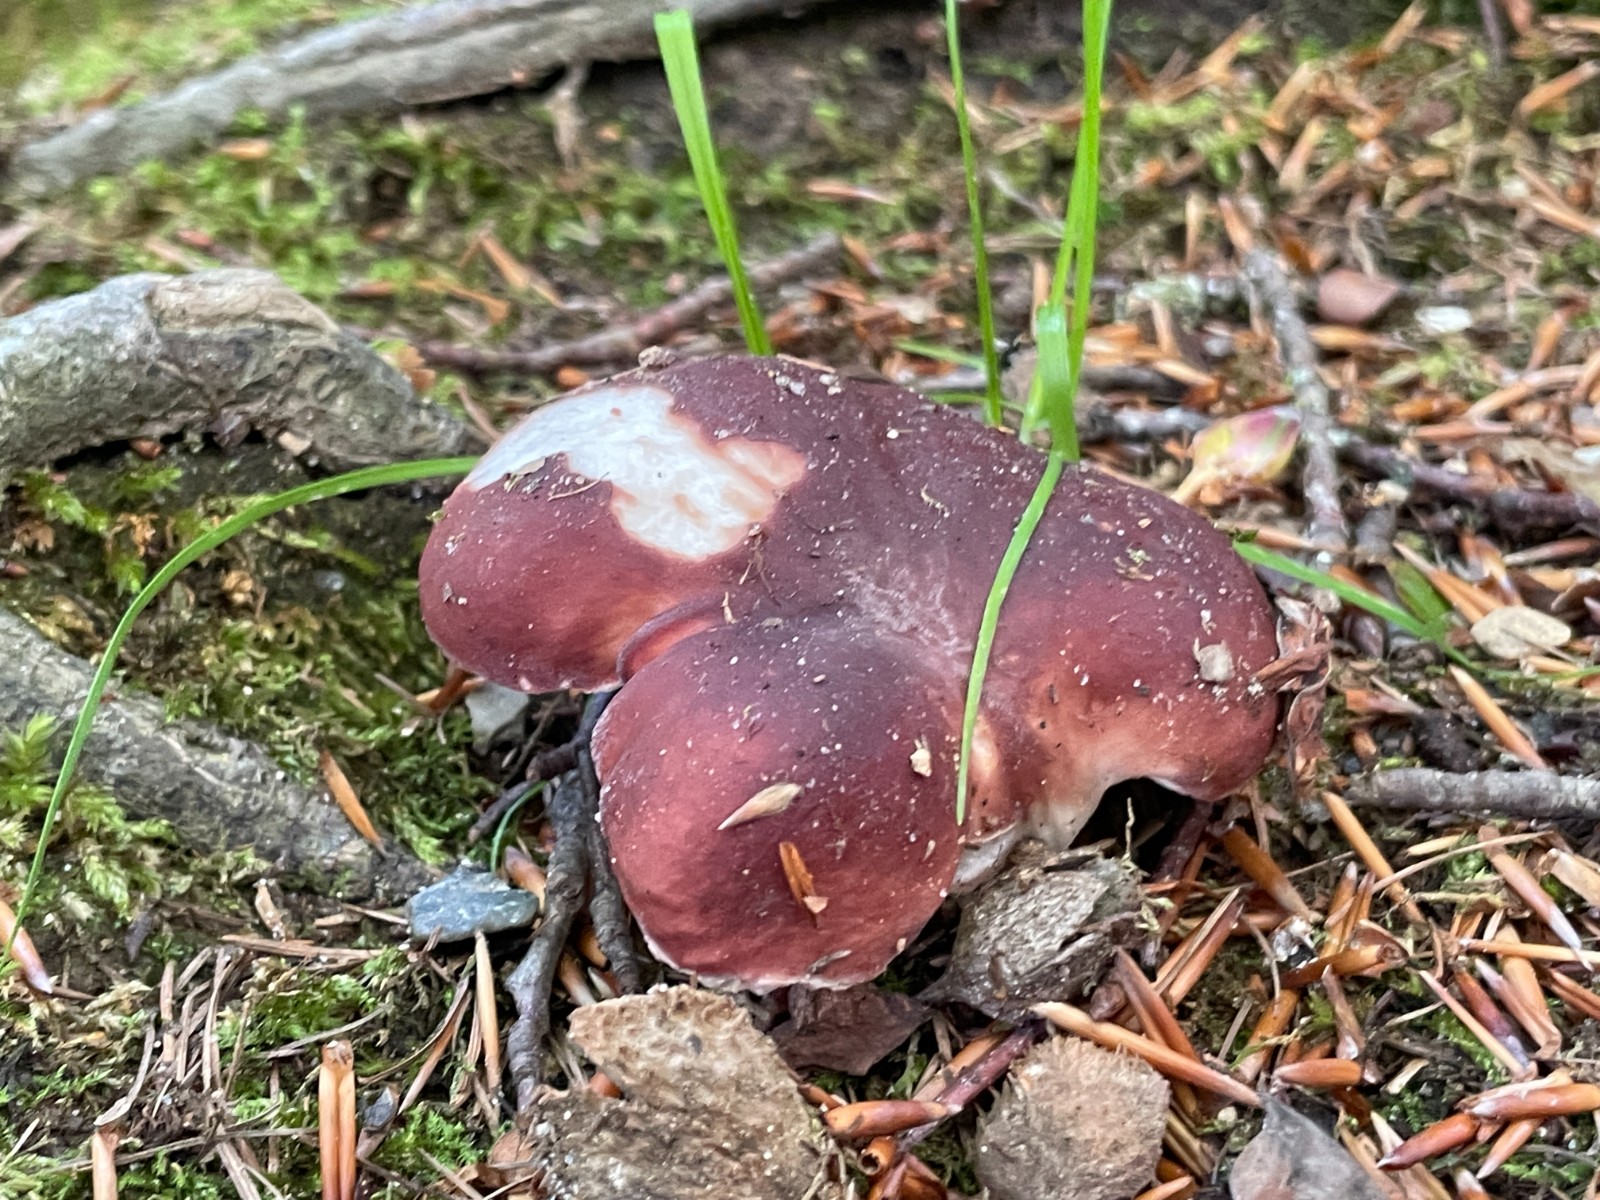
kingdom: Fungi
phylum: Basidiomycota
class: Agaricomycetes
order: Russulales
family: Russulaceae
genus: Russula
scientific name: Russula vesca
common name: spiselig skørhat
